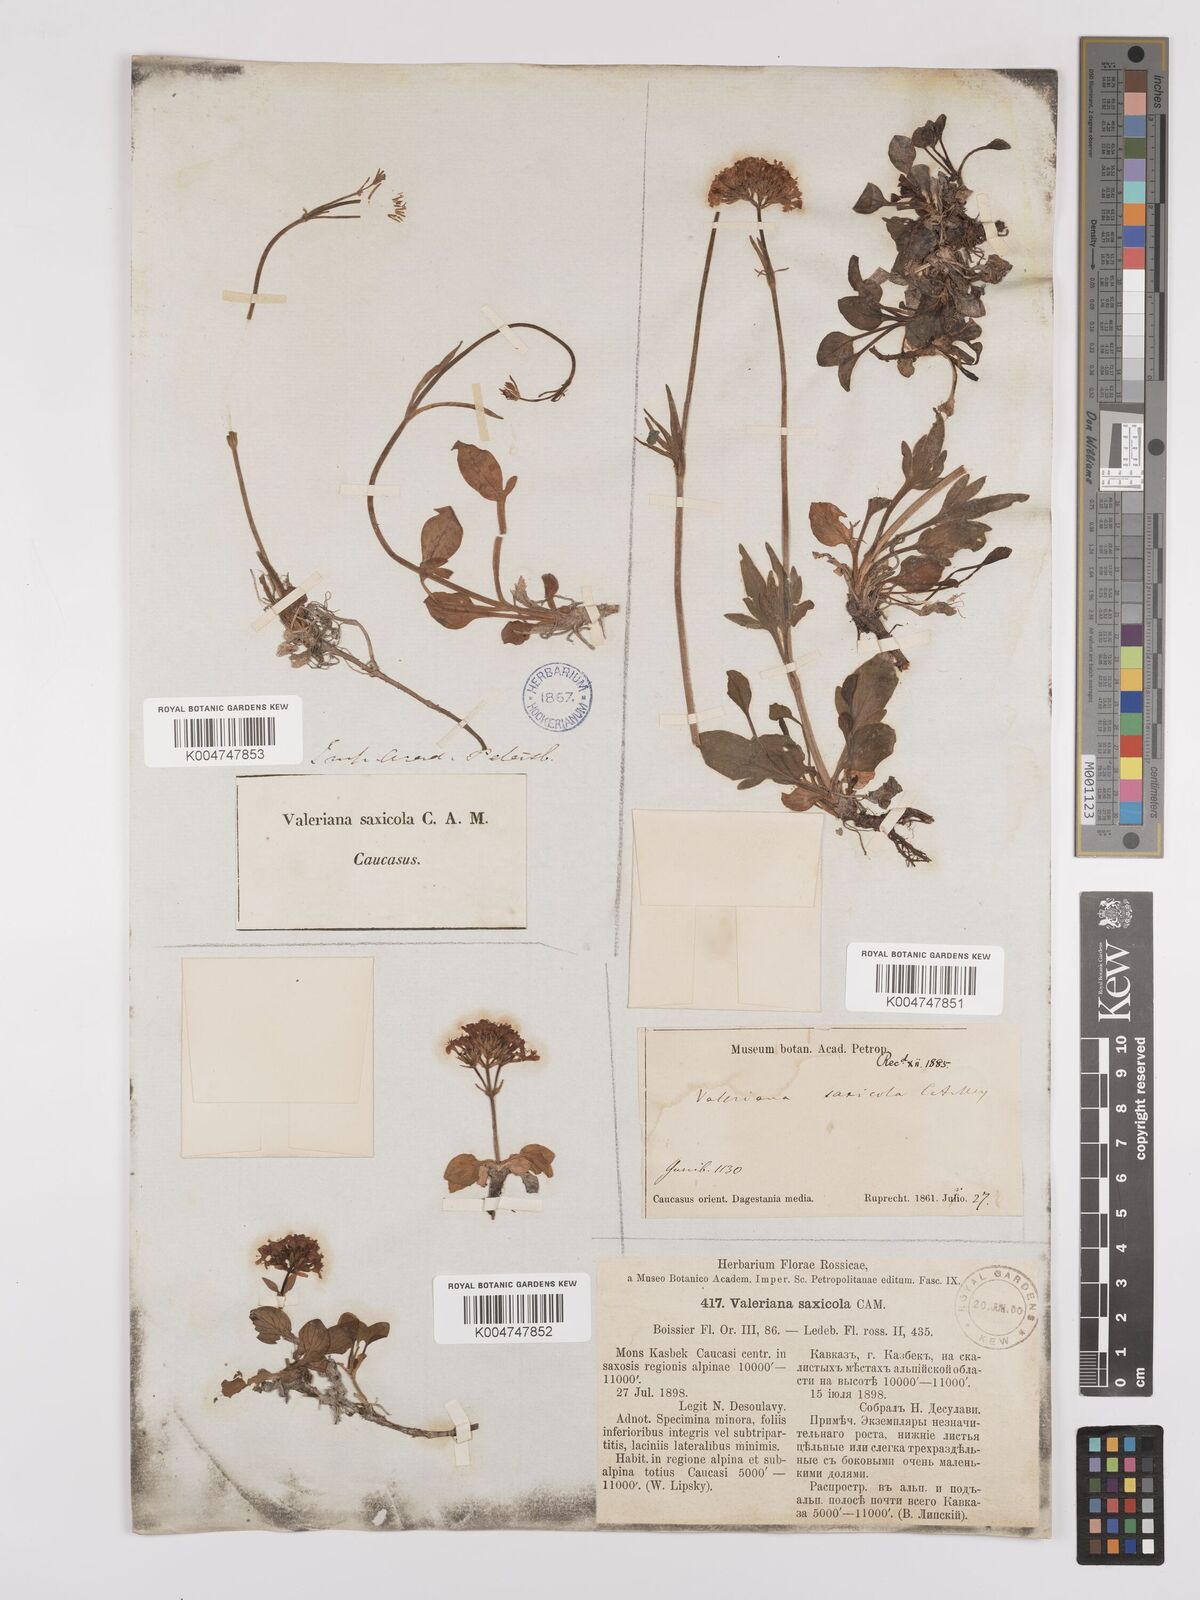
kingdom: Plantae
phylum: Tracheophyta
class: Magnoliopsida
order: Dipsacales
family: Caprifoliaceae
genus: Valeriana
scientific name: Valeriana saxicola
